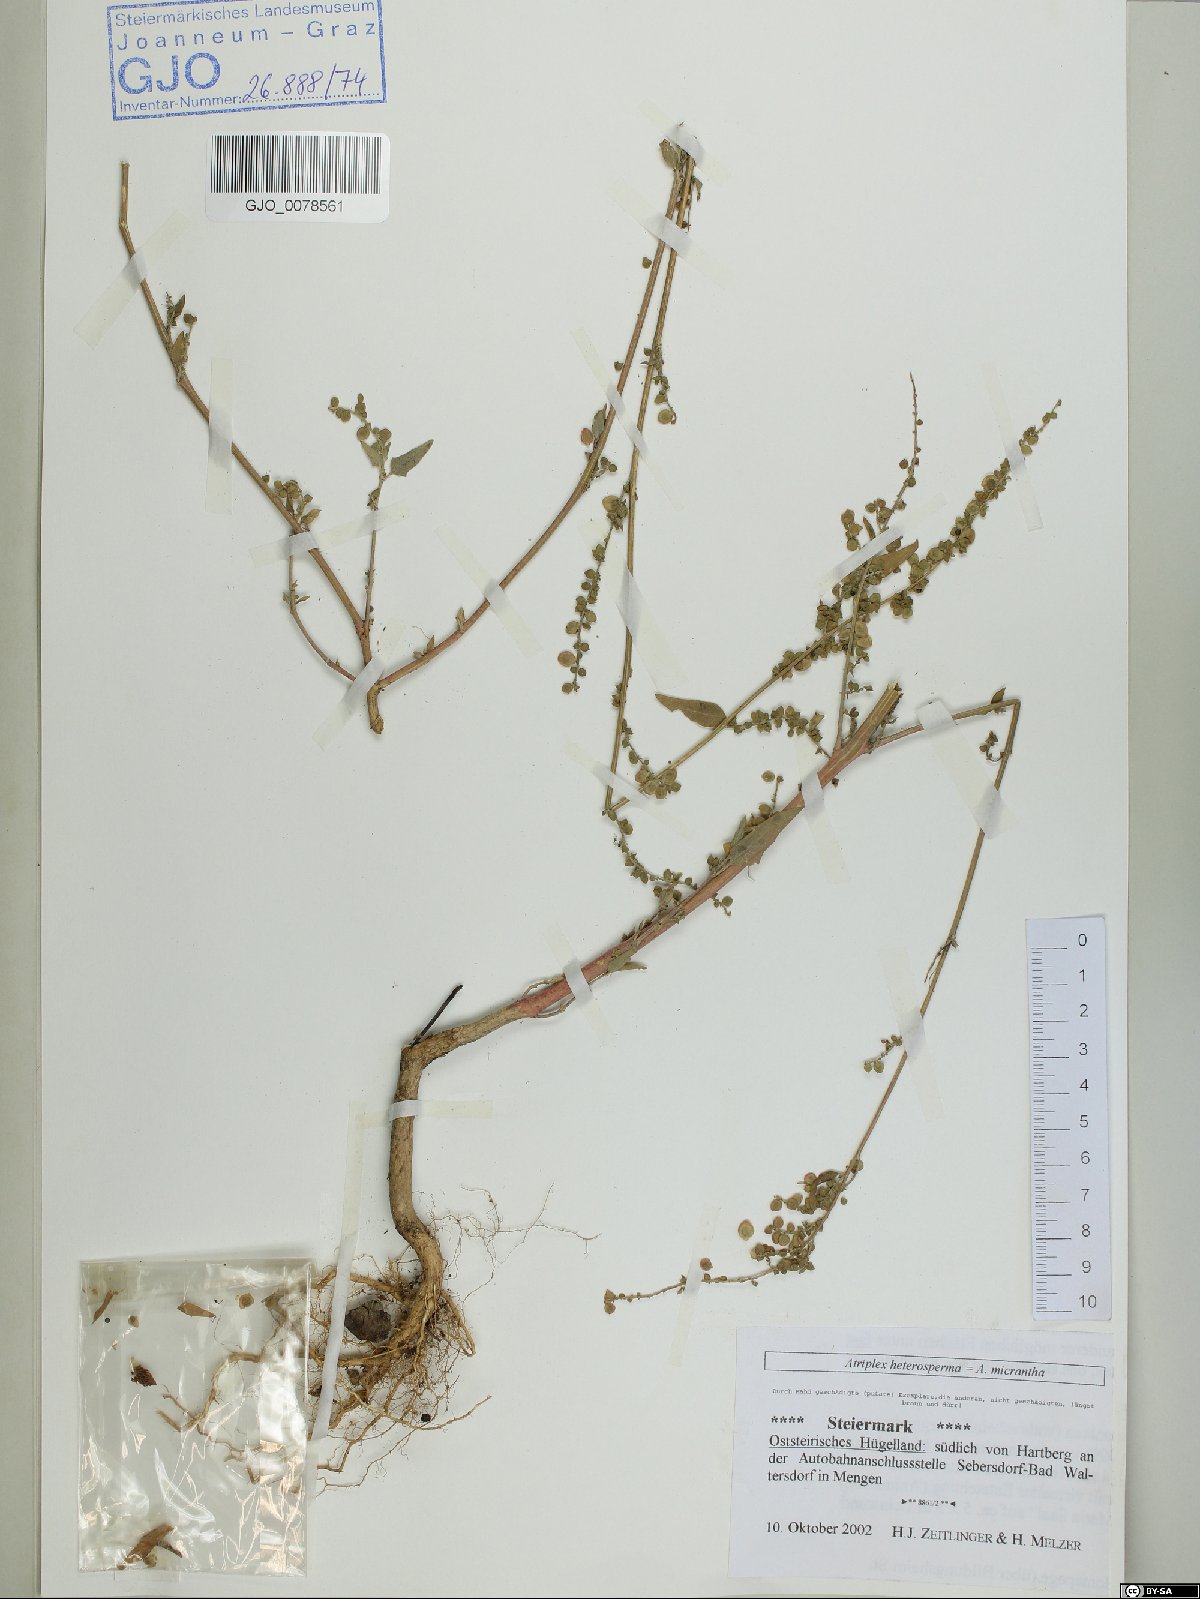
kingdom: Plantae
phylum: Tracheophyta
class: Magnoliopsida
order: Caryophyllales
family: Amaranthaceae
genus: Atriplex
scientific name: Atriplex micrantha
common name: Twoscale saltbush
